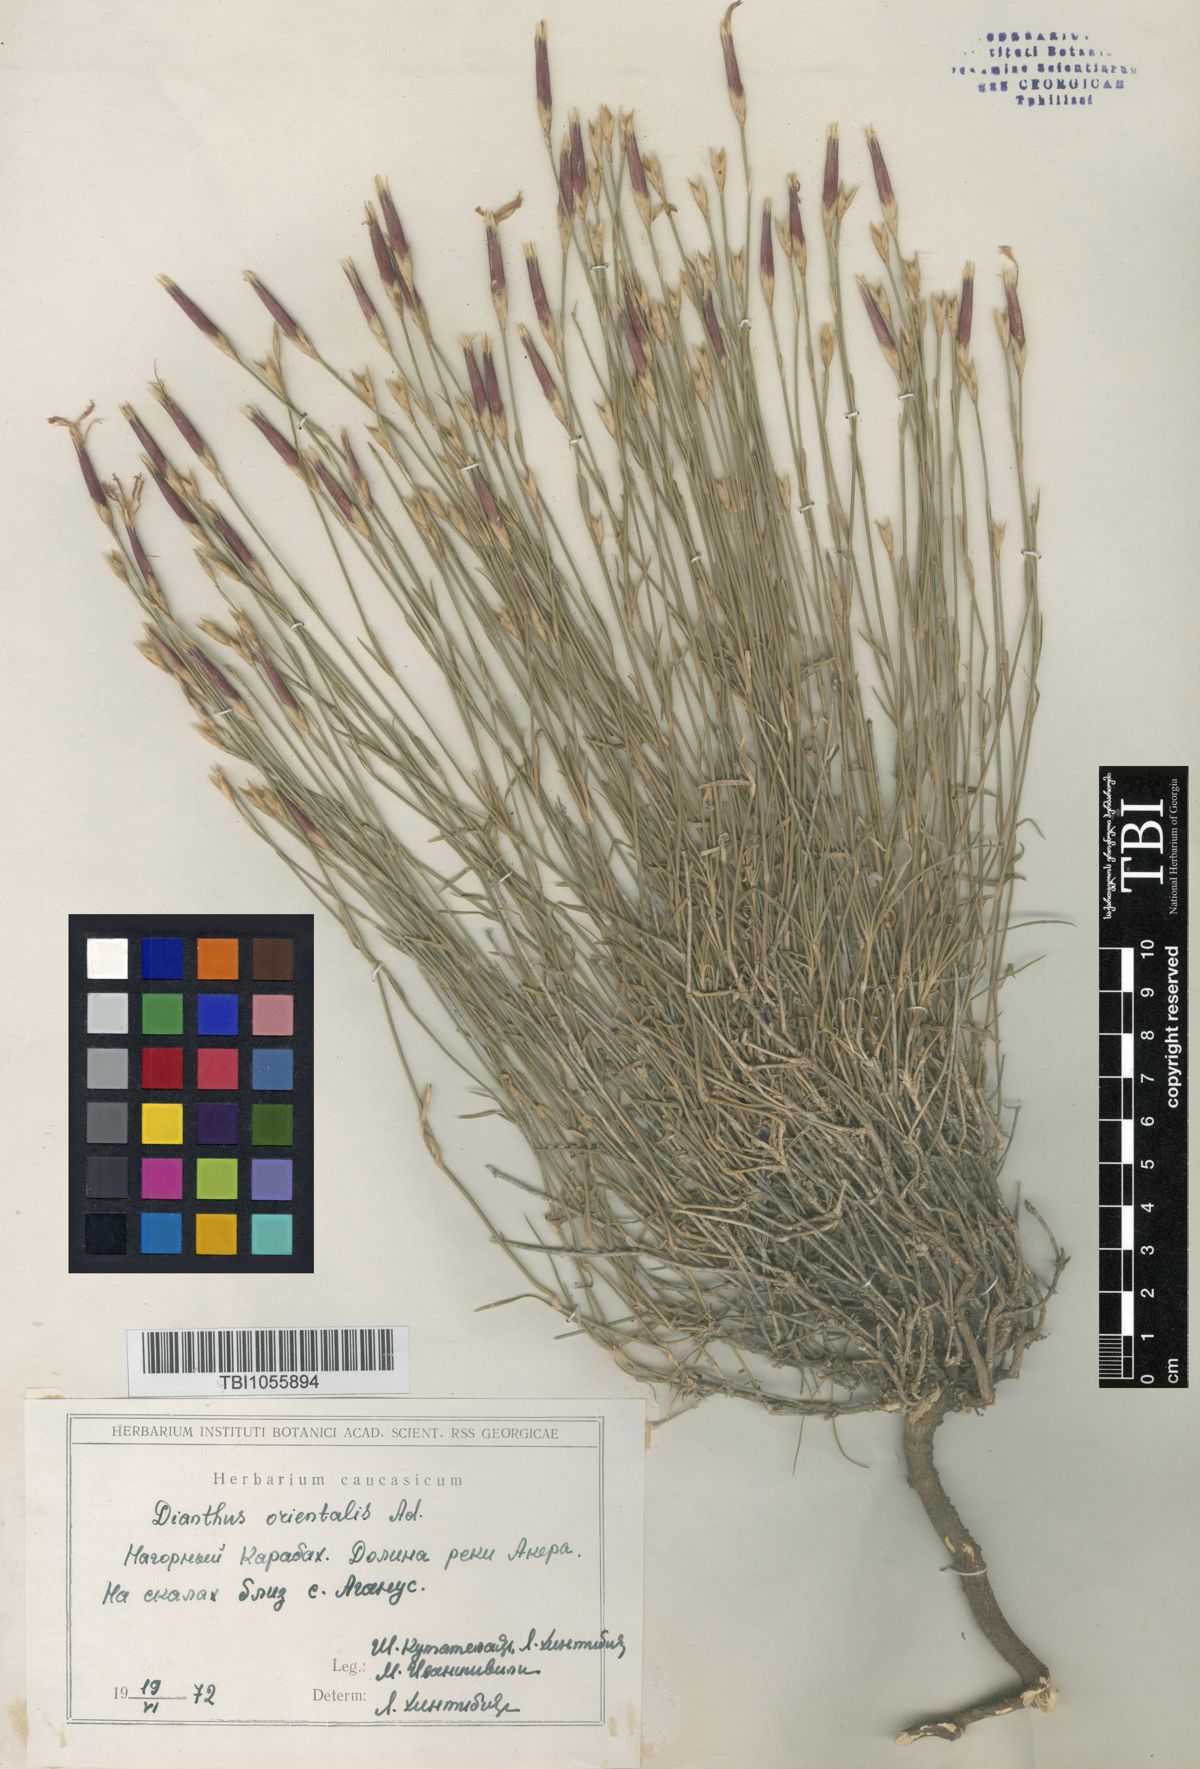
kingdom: Plantae
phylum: Tracheophyta
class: Magnoliopsida
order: Caryophyllales
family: Caryophyllaceae
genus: Dianthus
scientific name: Dianthus orientalis
